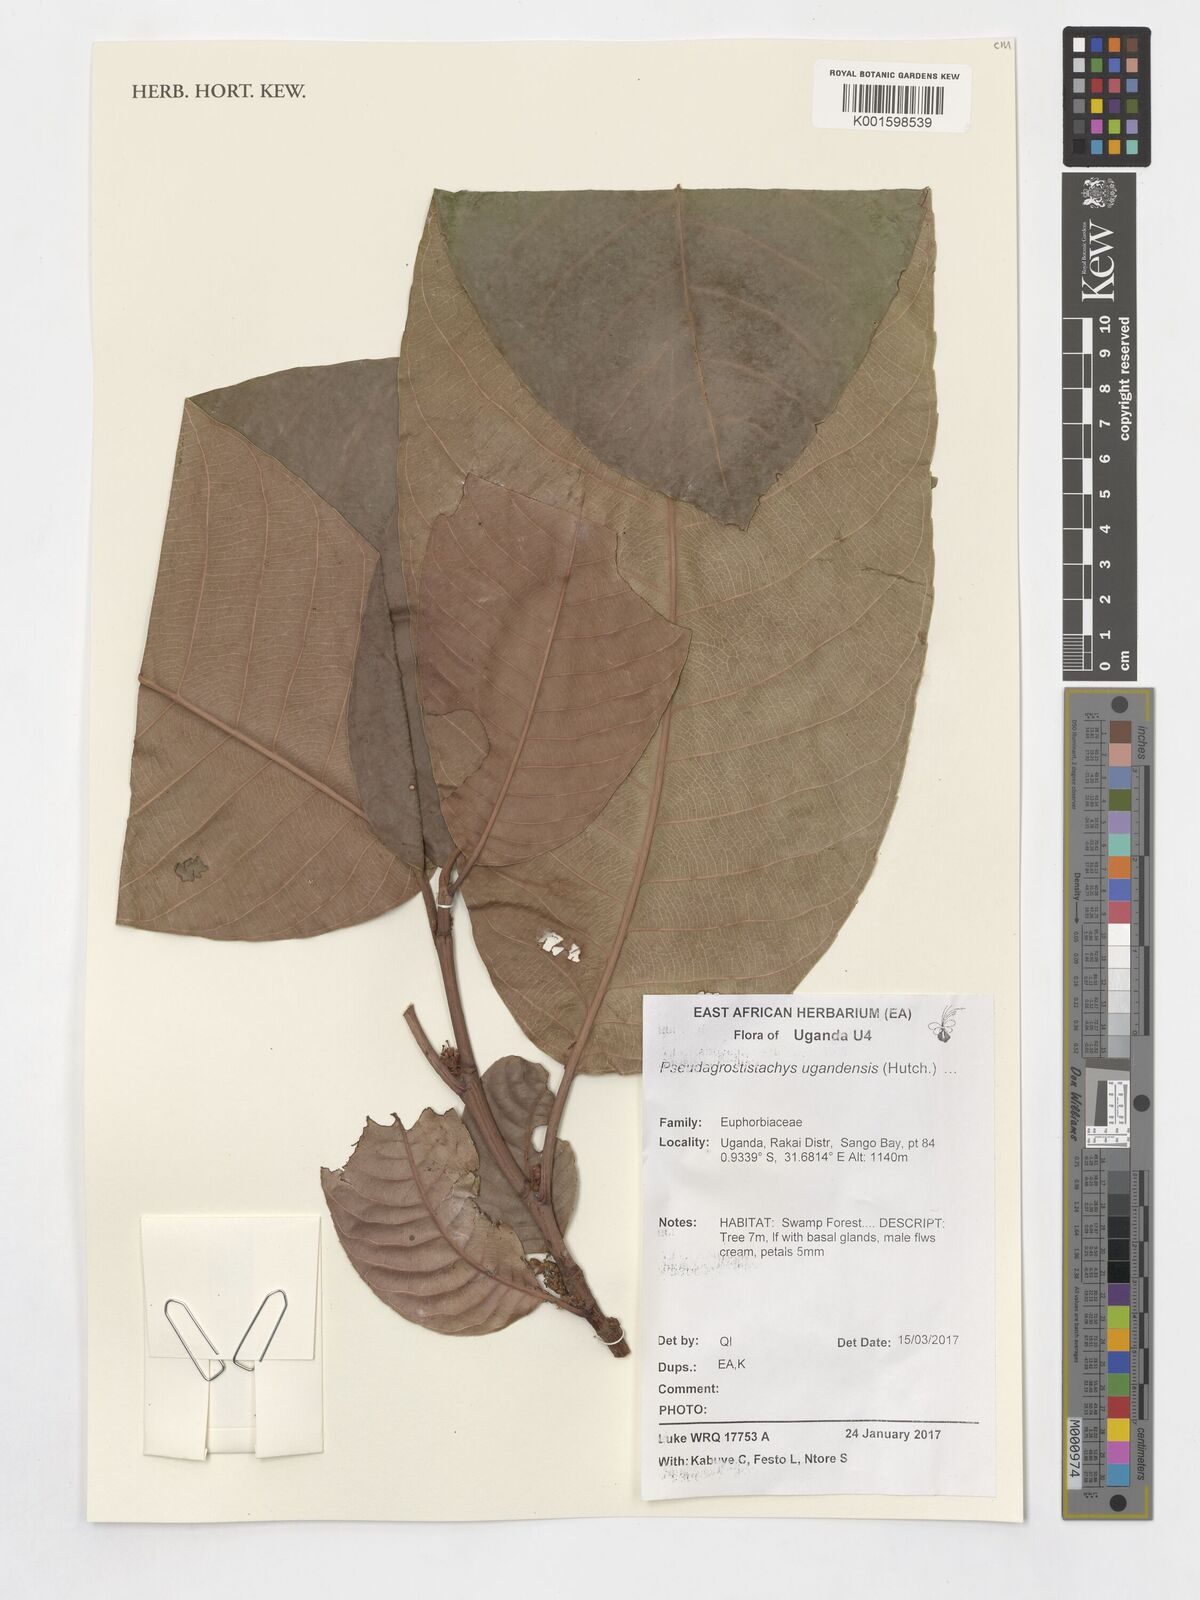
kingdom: Plantae
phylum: Tracheophyta
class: Magnoliopsida
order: Malpighiales
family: Euphorbiaceae
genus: Pseudagrostistachys
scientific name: Pseudagrostistachys ugandensis
